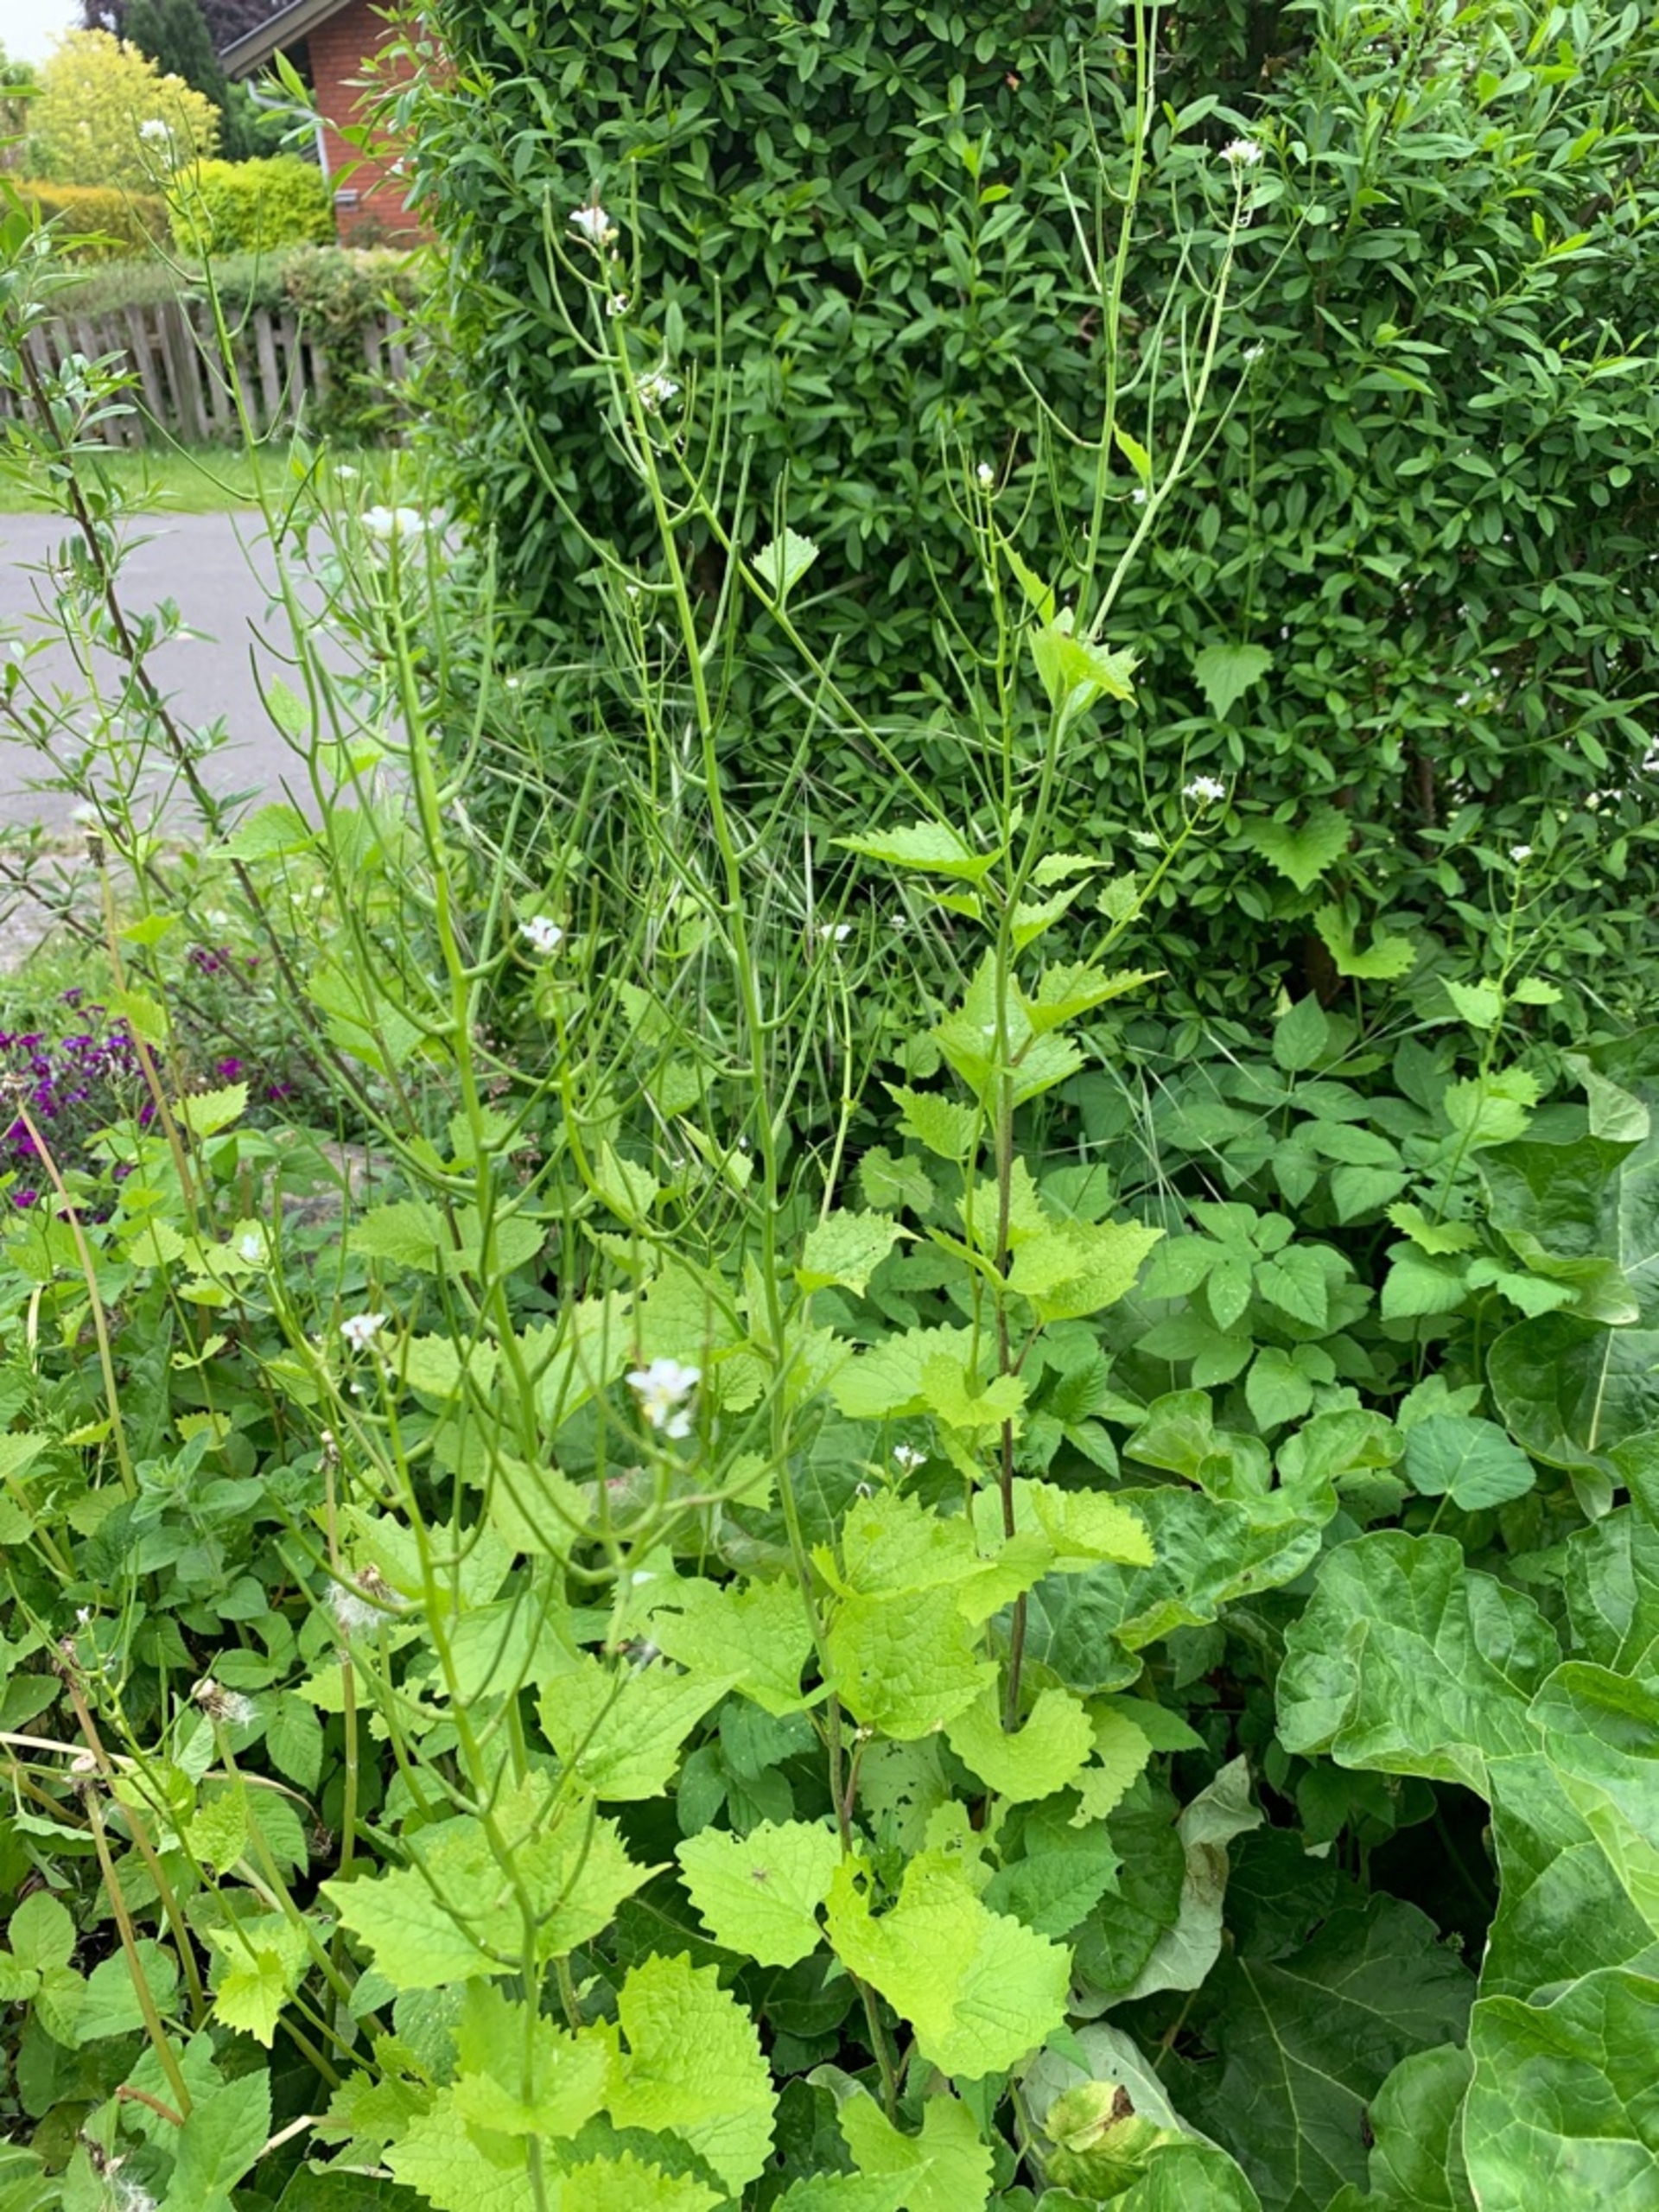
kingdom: Plantae
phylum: Tracheophyta
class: Magnoliopsida
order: Brassicales
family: Brassicaceae
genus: Alliaria
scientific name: Alliaria petiolata
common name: Løgkarse
